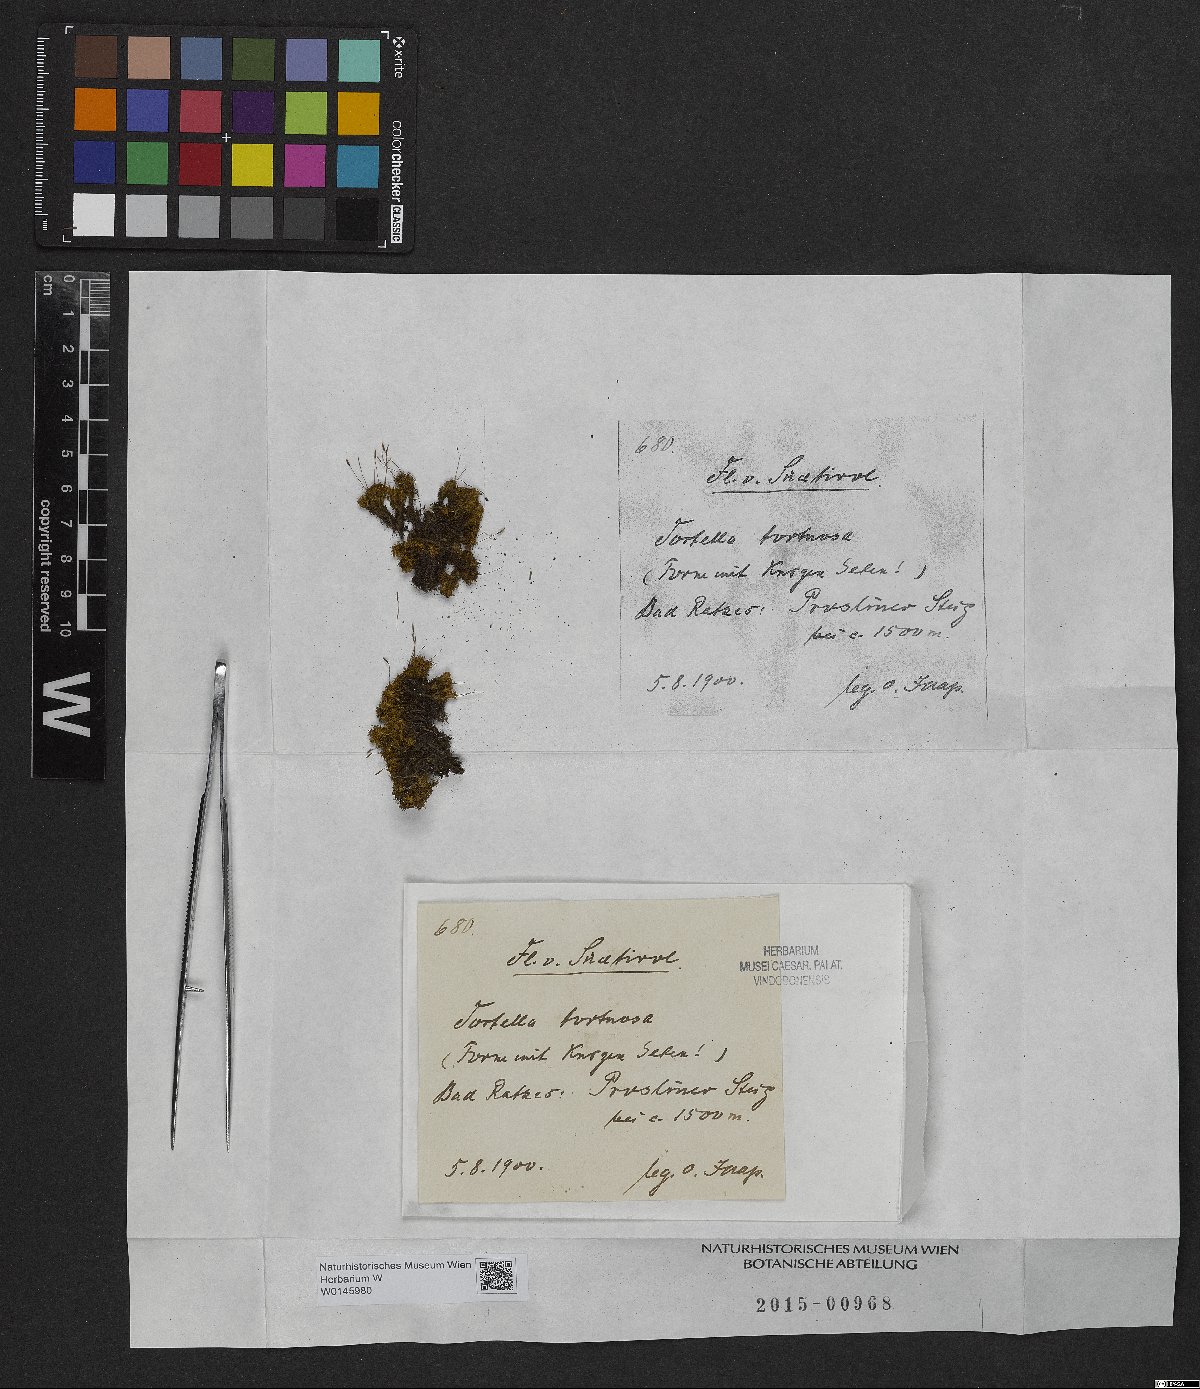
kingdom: Plantae
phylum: Bryophyta
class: Bryopsida
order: Pottiales
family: Pottiaceae
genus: Tortella
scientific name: Tortella tortuosa
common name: Frizzled crisp moss
